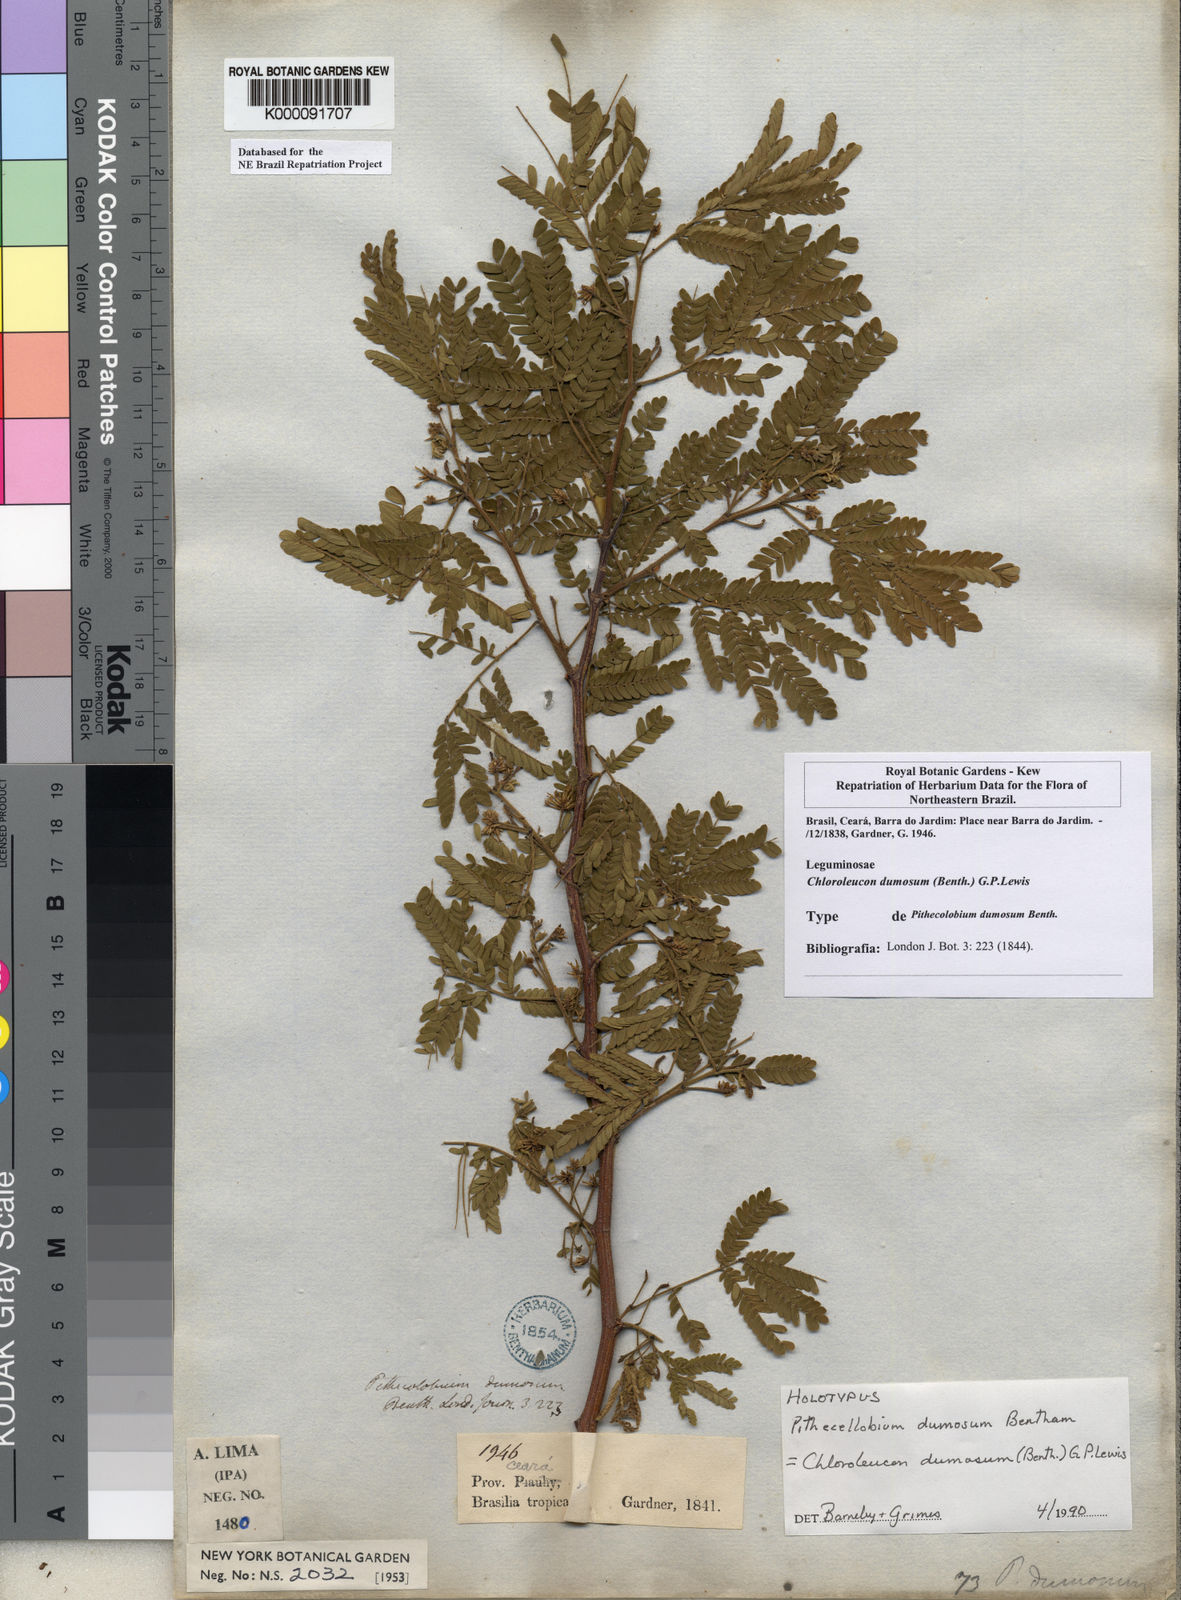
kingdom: Plantae
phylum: Tracheophyta
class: Magnoliopsida
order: Fabales
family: Fabaceae
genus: Chloroleucon
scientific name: Chloroleucon dumosum
